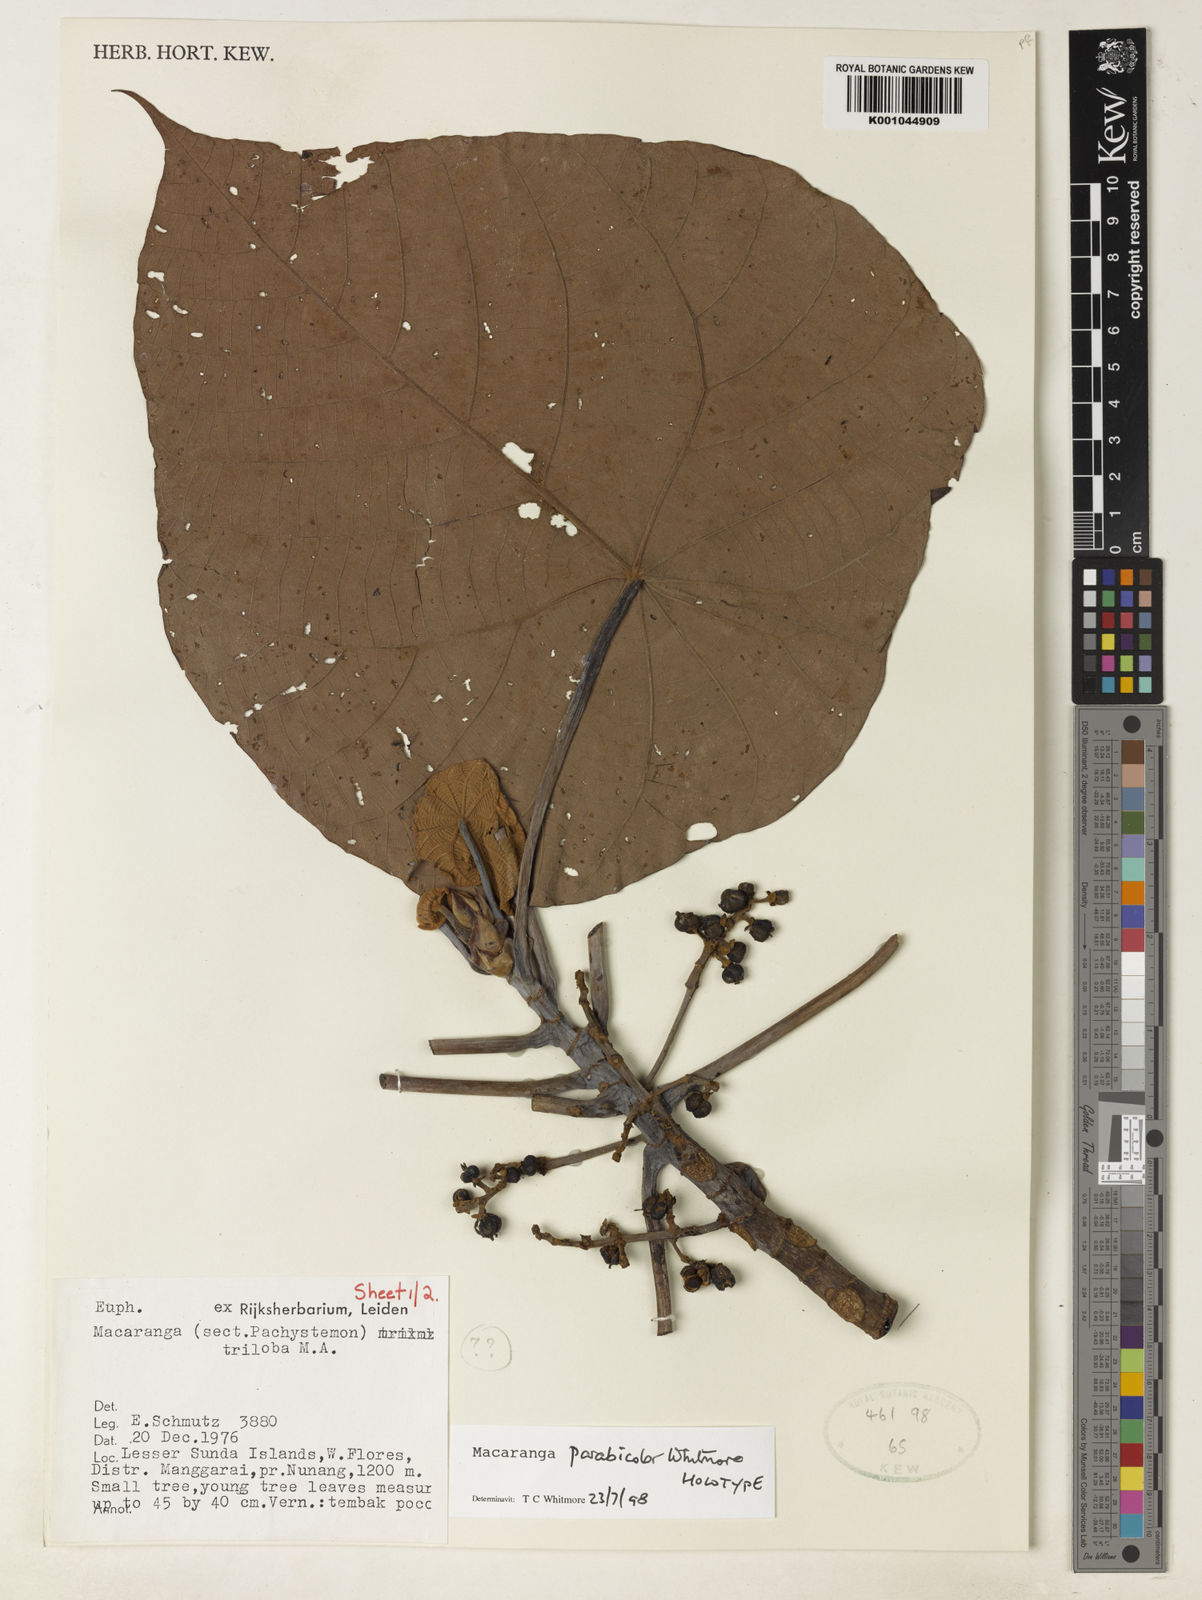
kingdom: Plantae
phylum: Tracheophyta
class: Magnoliopsida
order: Malpighiales
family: Euphorbiaceae
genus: Macaranga
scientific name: Macaranga parabicolor
